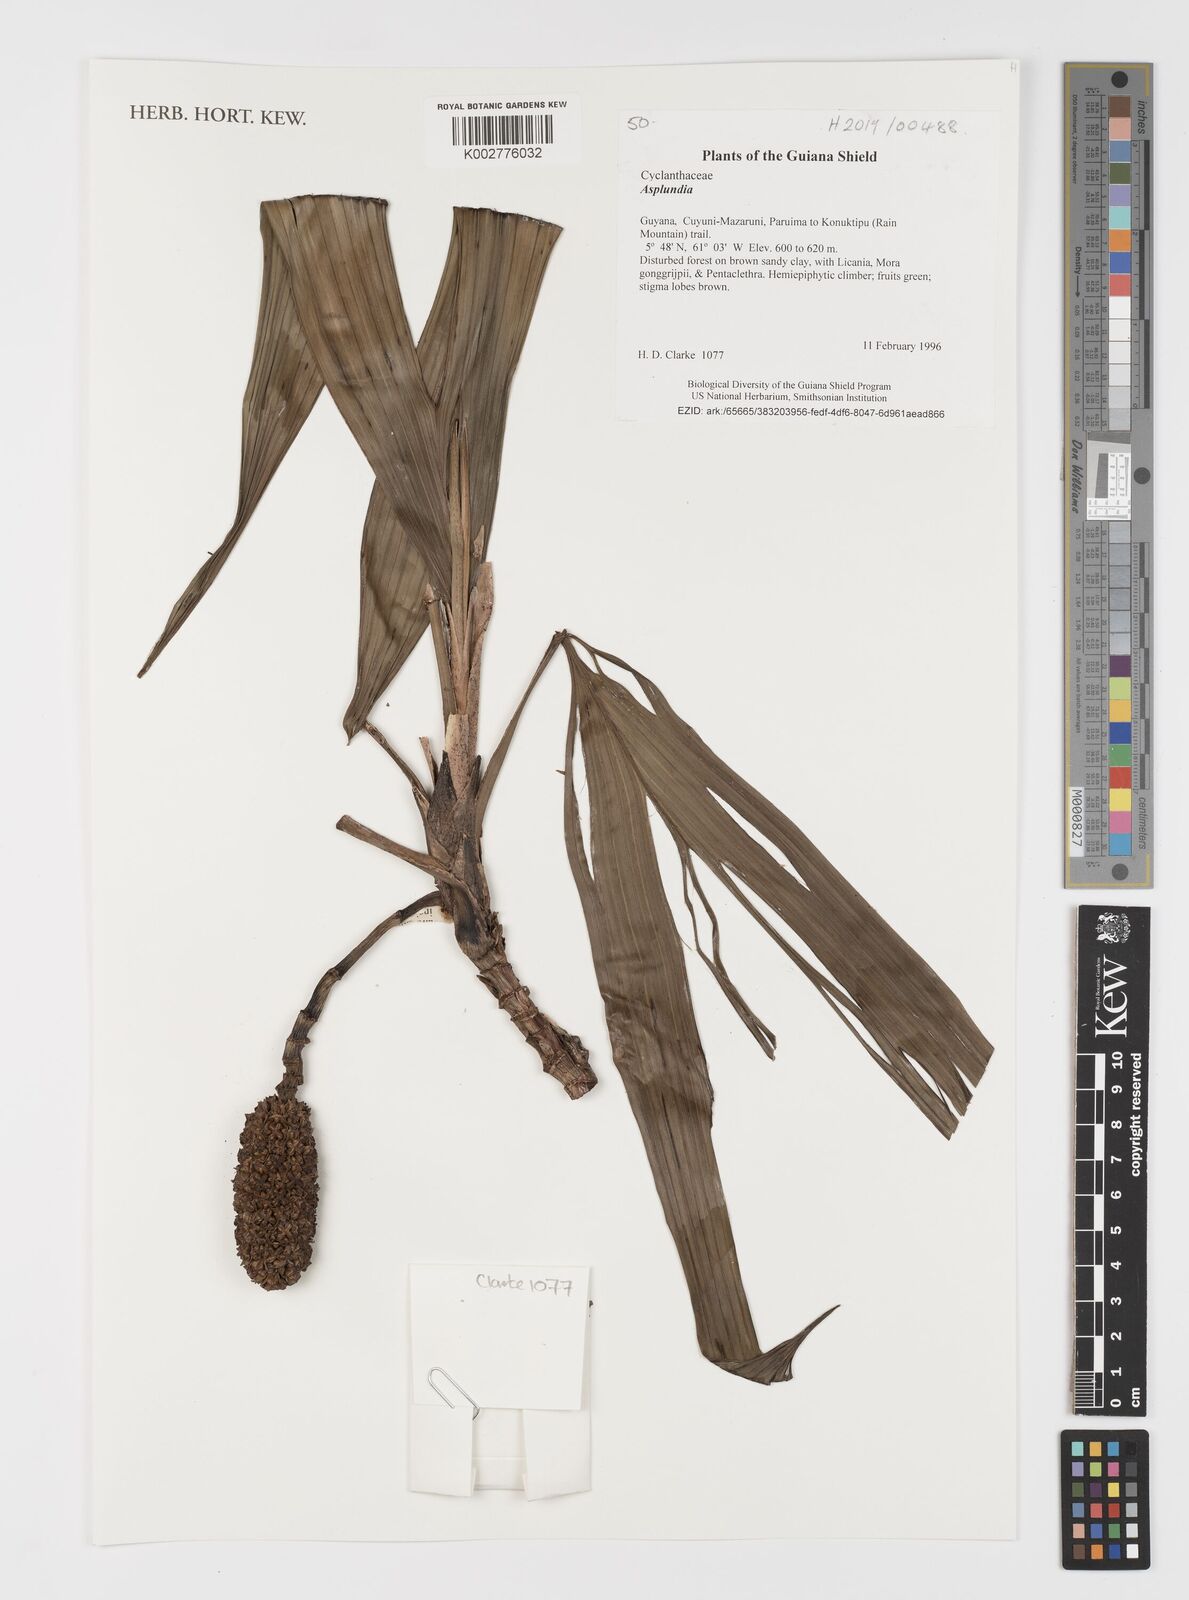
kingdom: Plantae
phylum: Tracheophyta
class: Liliopsida
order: Pandanales
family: Cyclanthaceae
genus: Asplundia
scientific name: Asplundia
